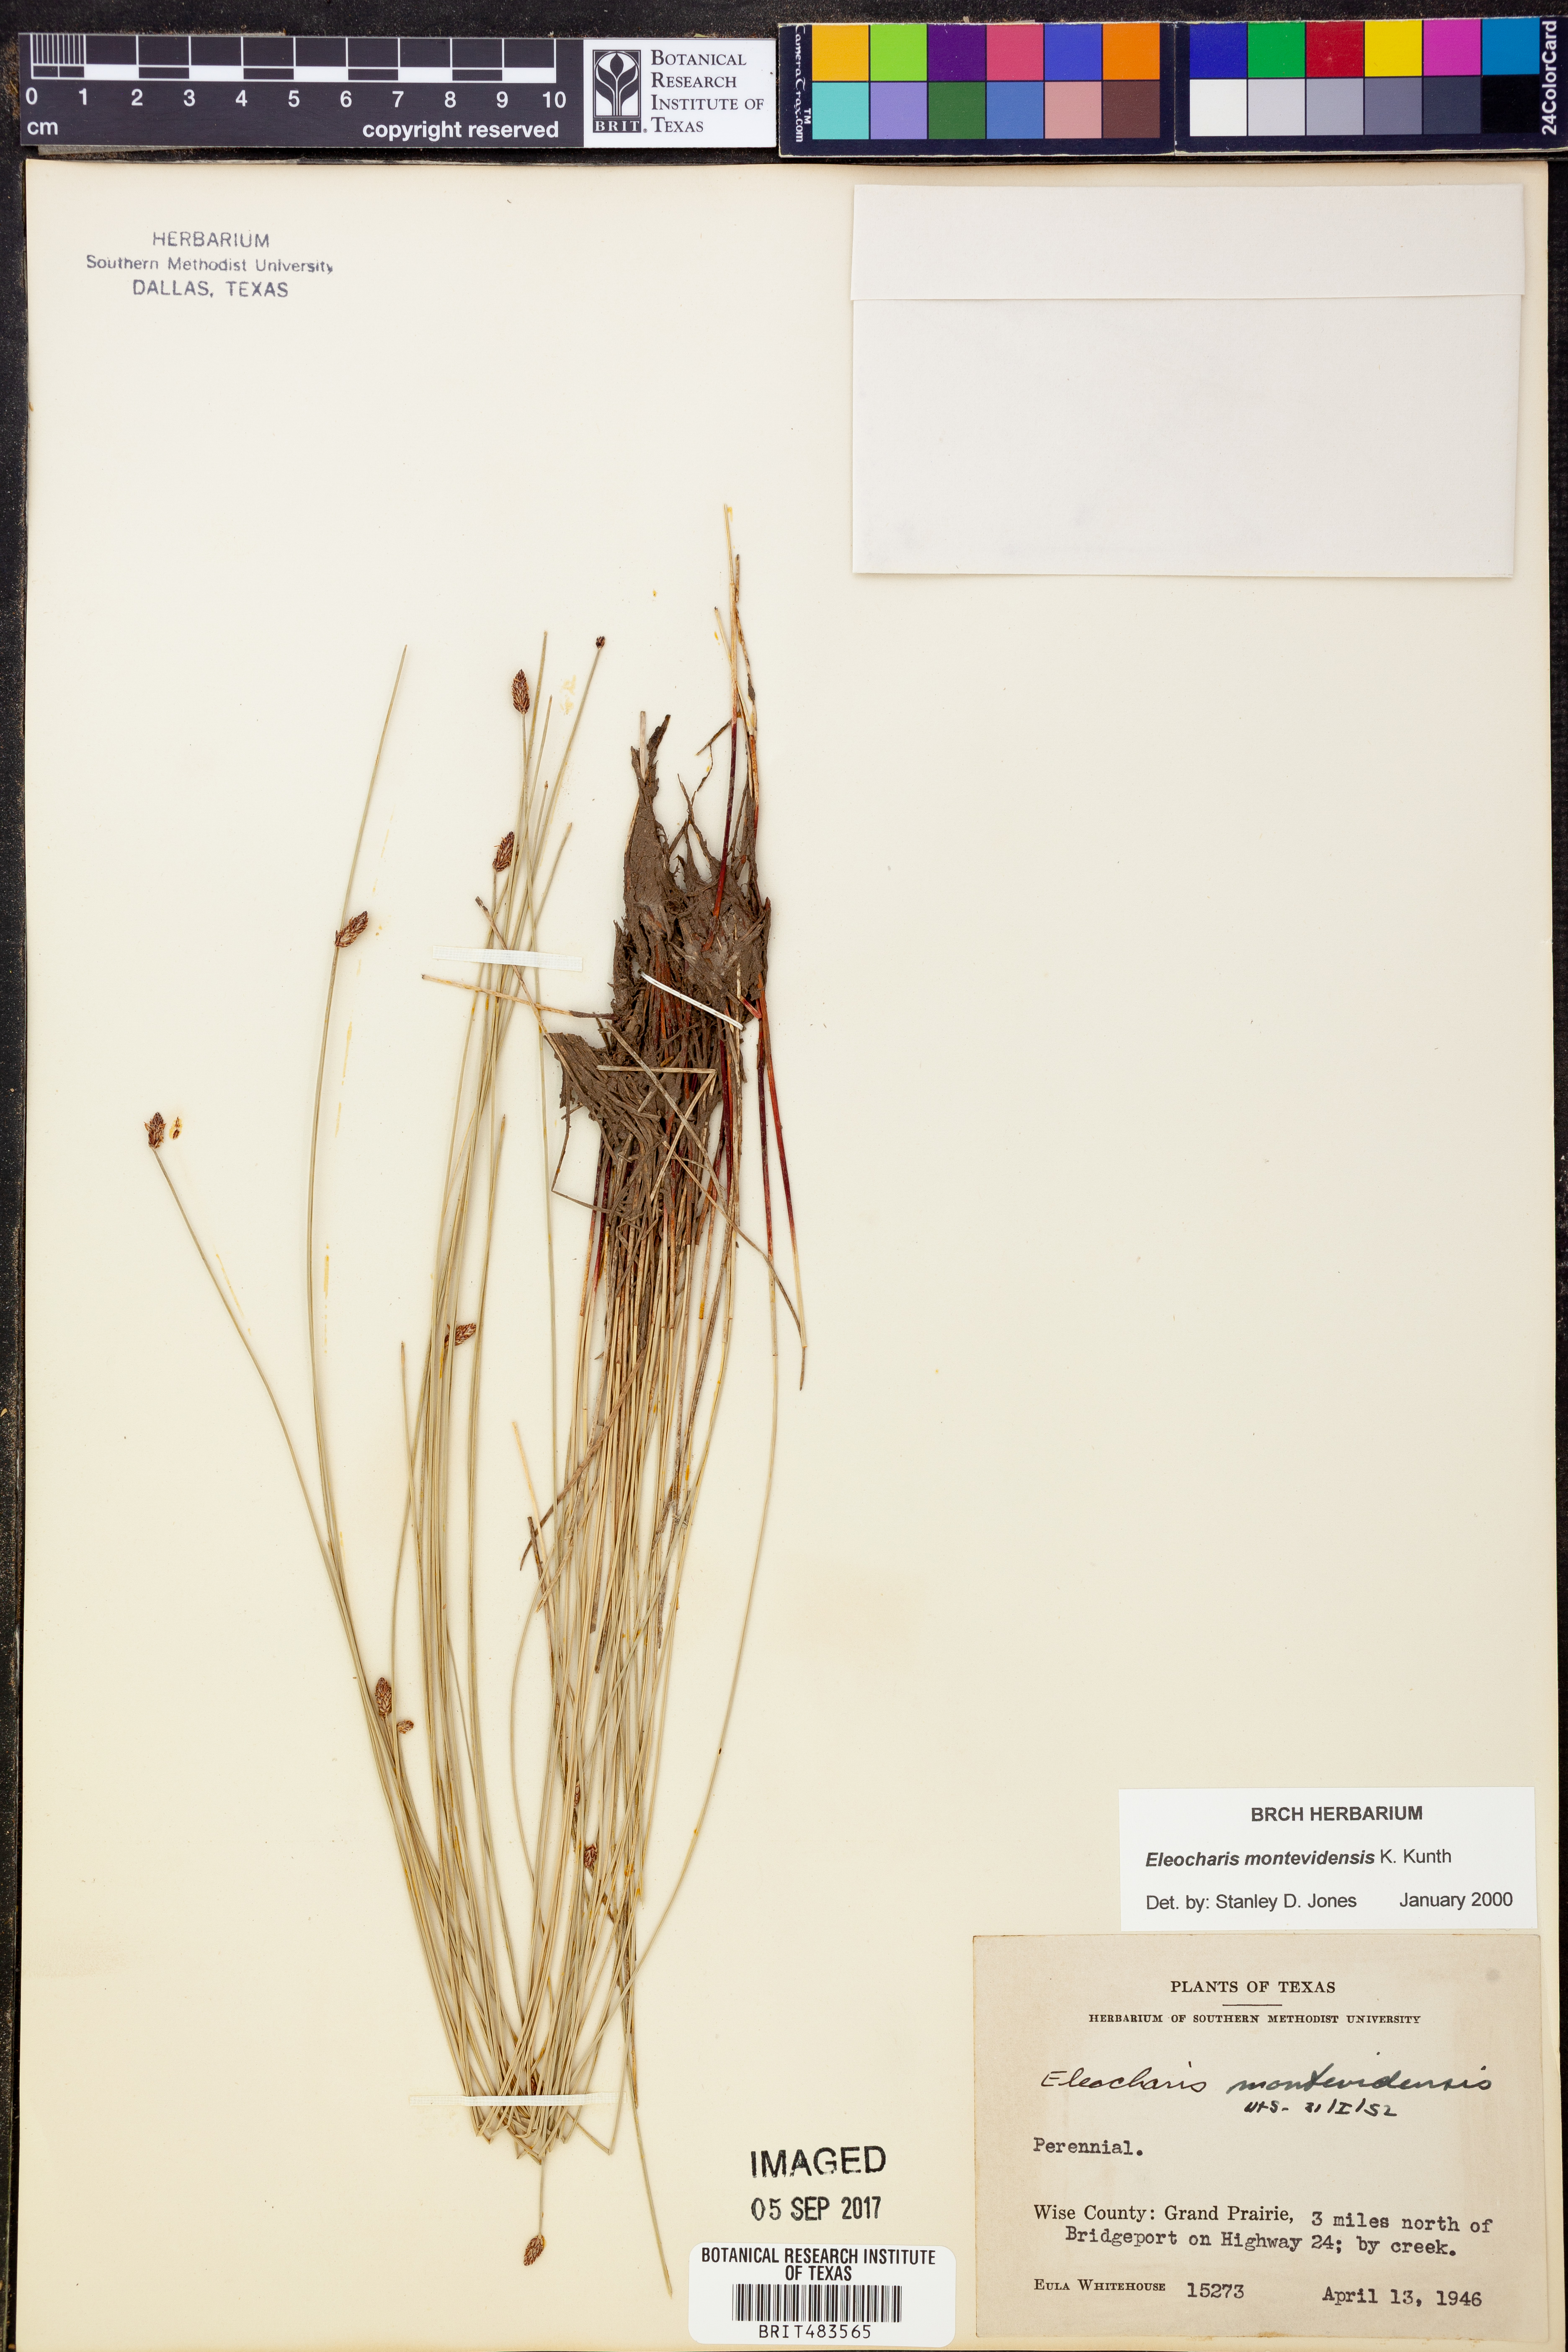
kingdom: Plantae
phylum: Tracheophyta
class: Liliopsida
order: Poales
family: Cyperaceae
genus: Eleocharis
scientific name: Eleocharis montevidensis
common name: Sand spike-rush
